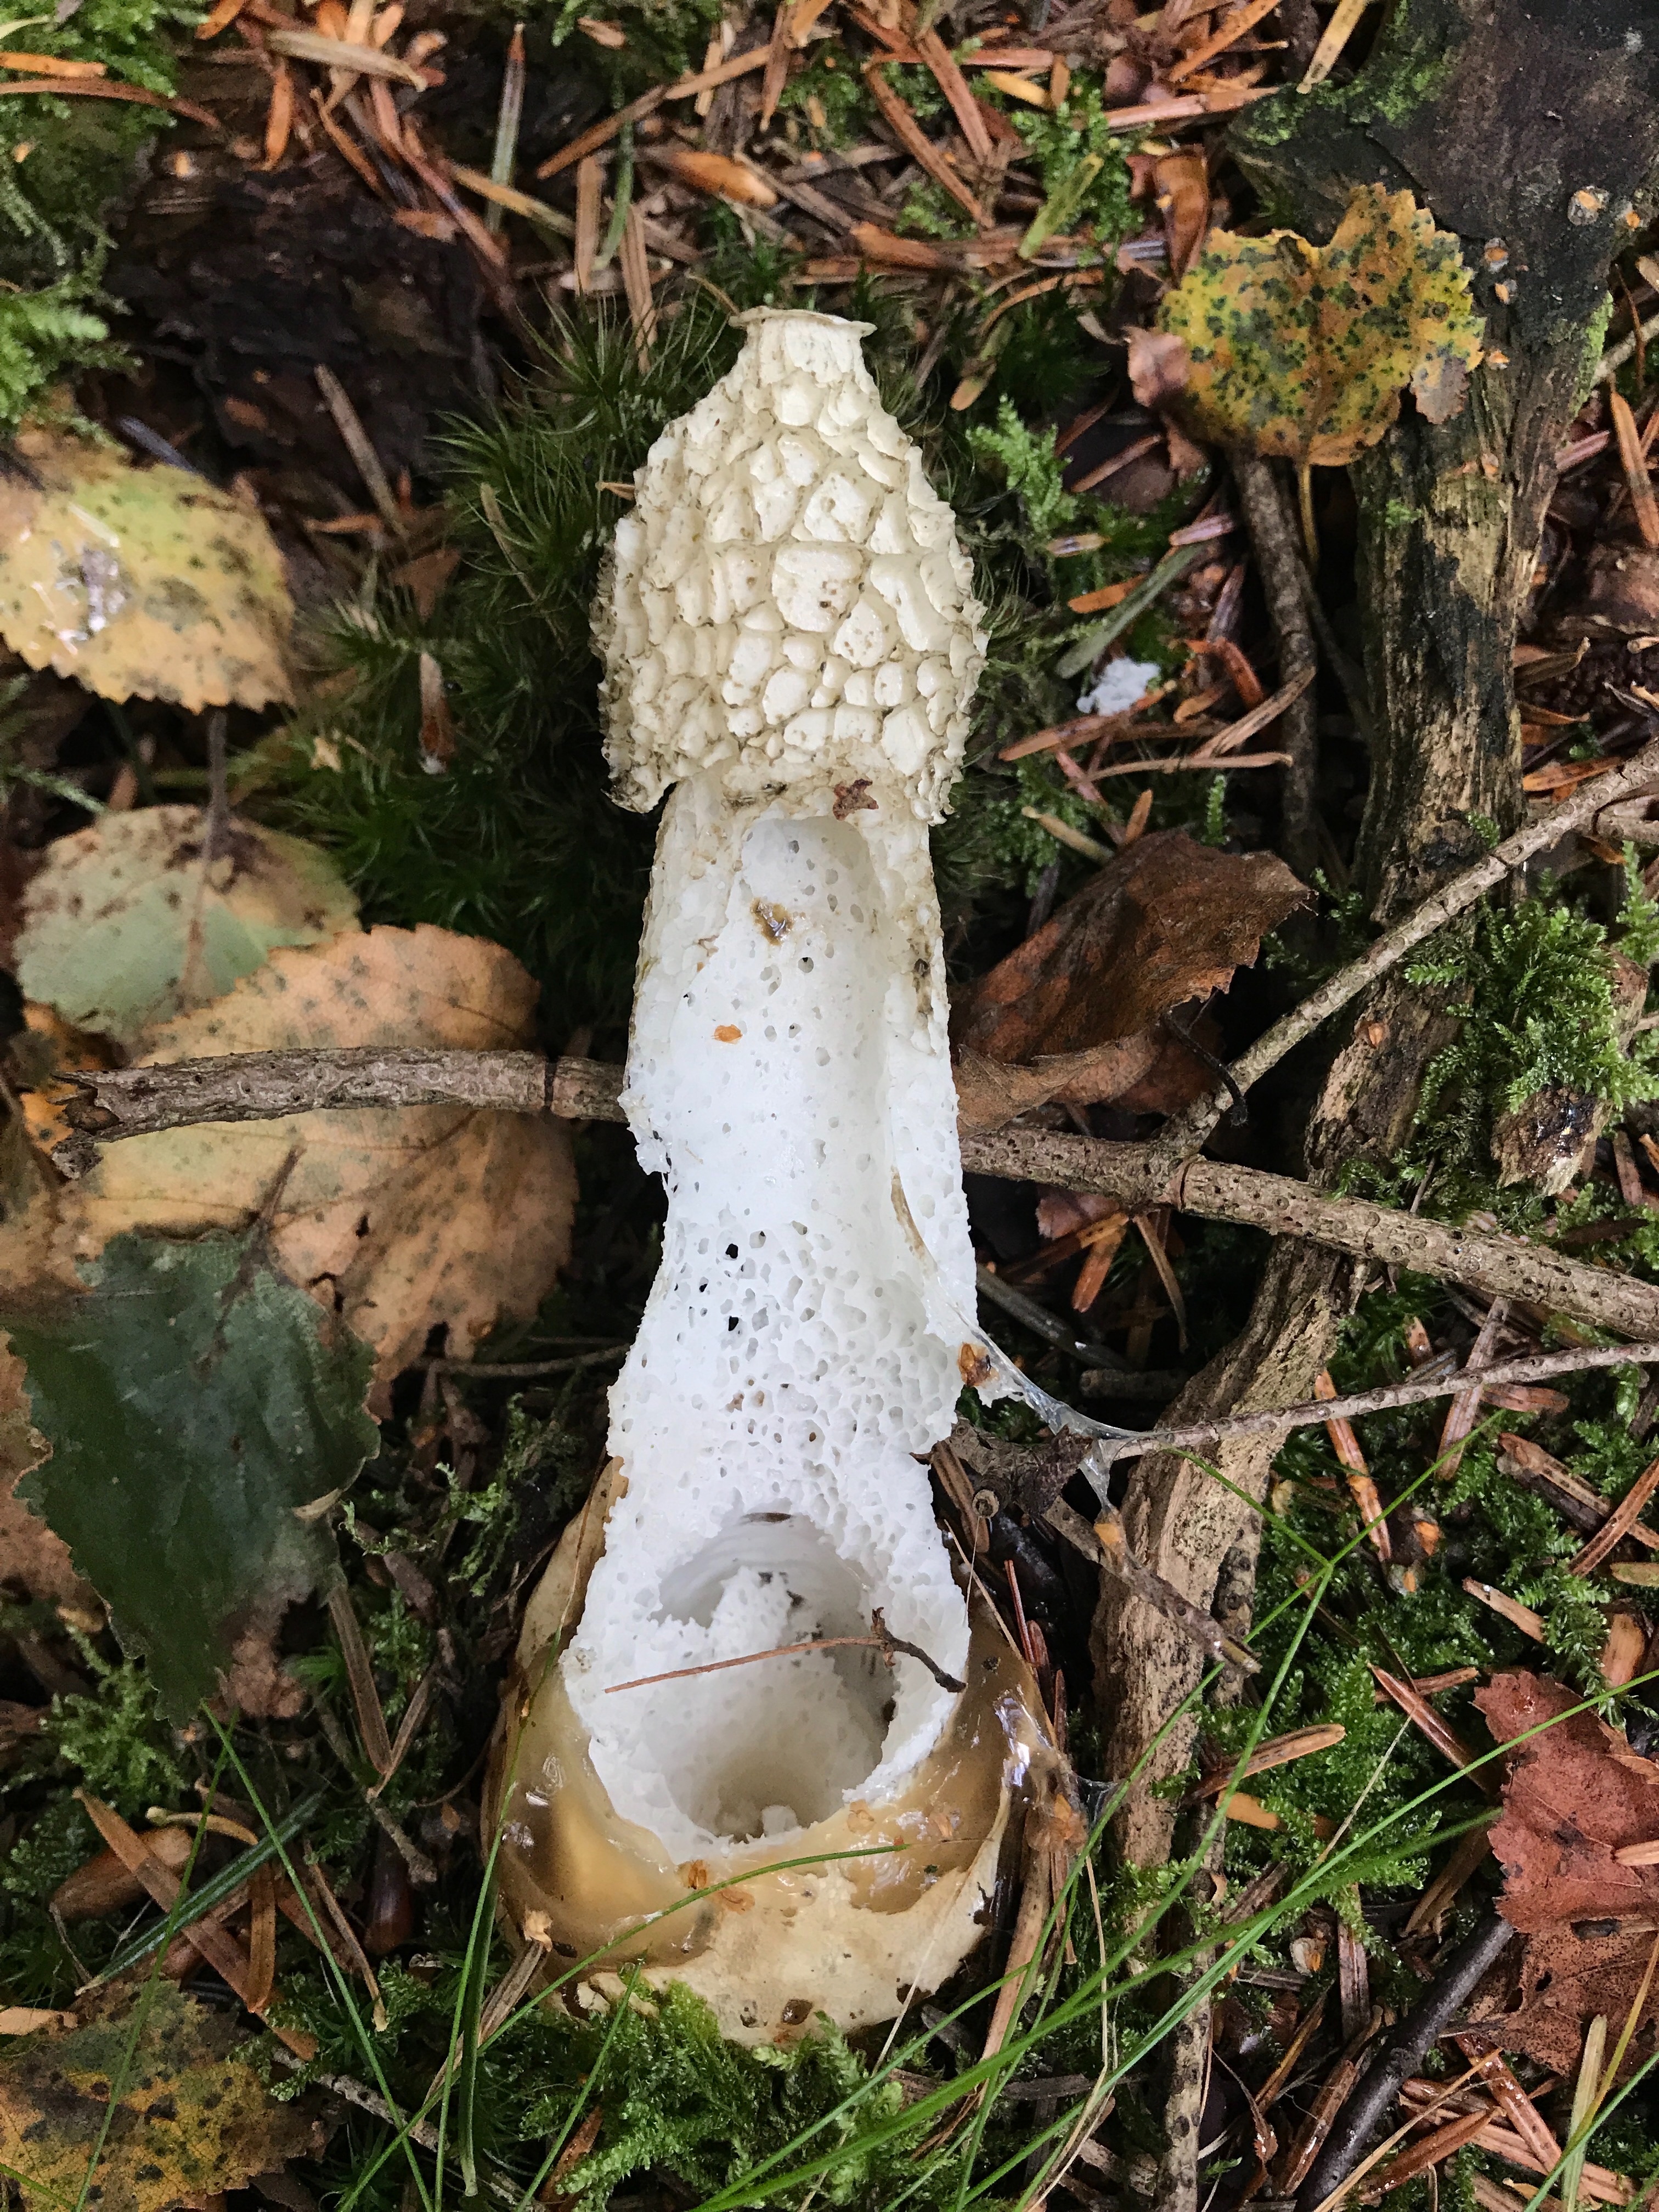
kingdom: Fungi
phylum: Basidiomycota
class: Agaricomycetes
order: Phallales
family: Phallaceae
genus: Phallus
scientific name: Phallus impudicus
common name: almindelig stinksvamp
